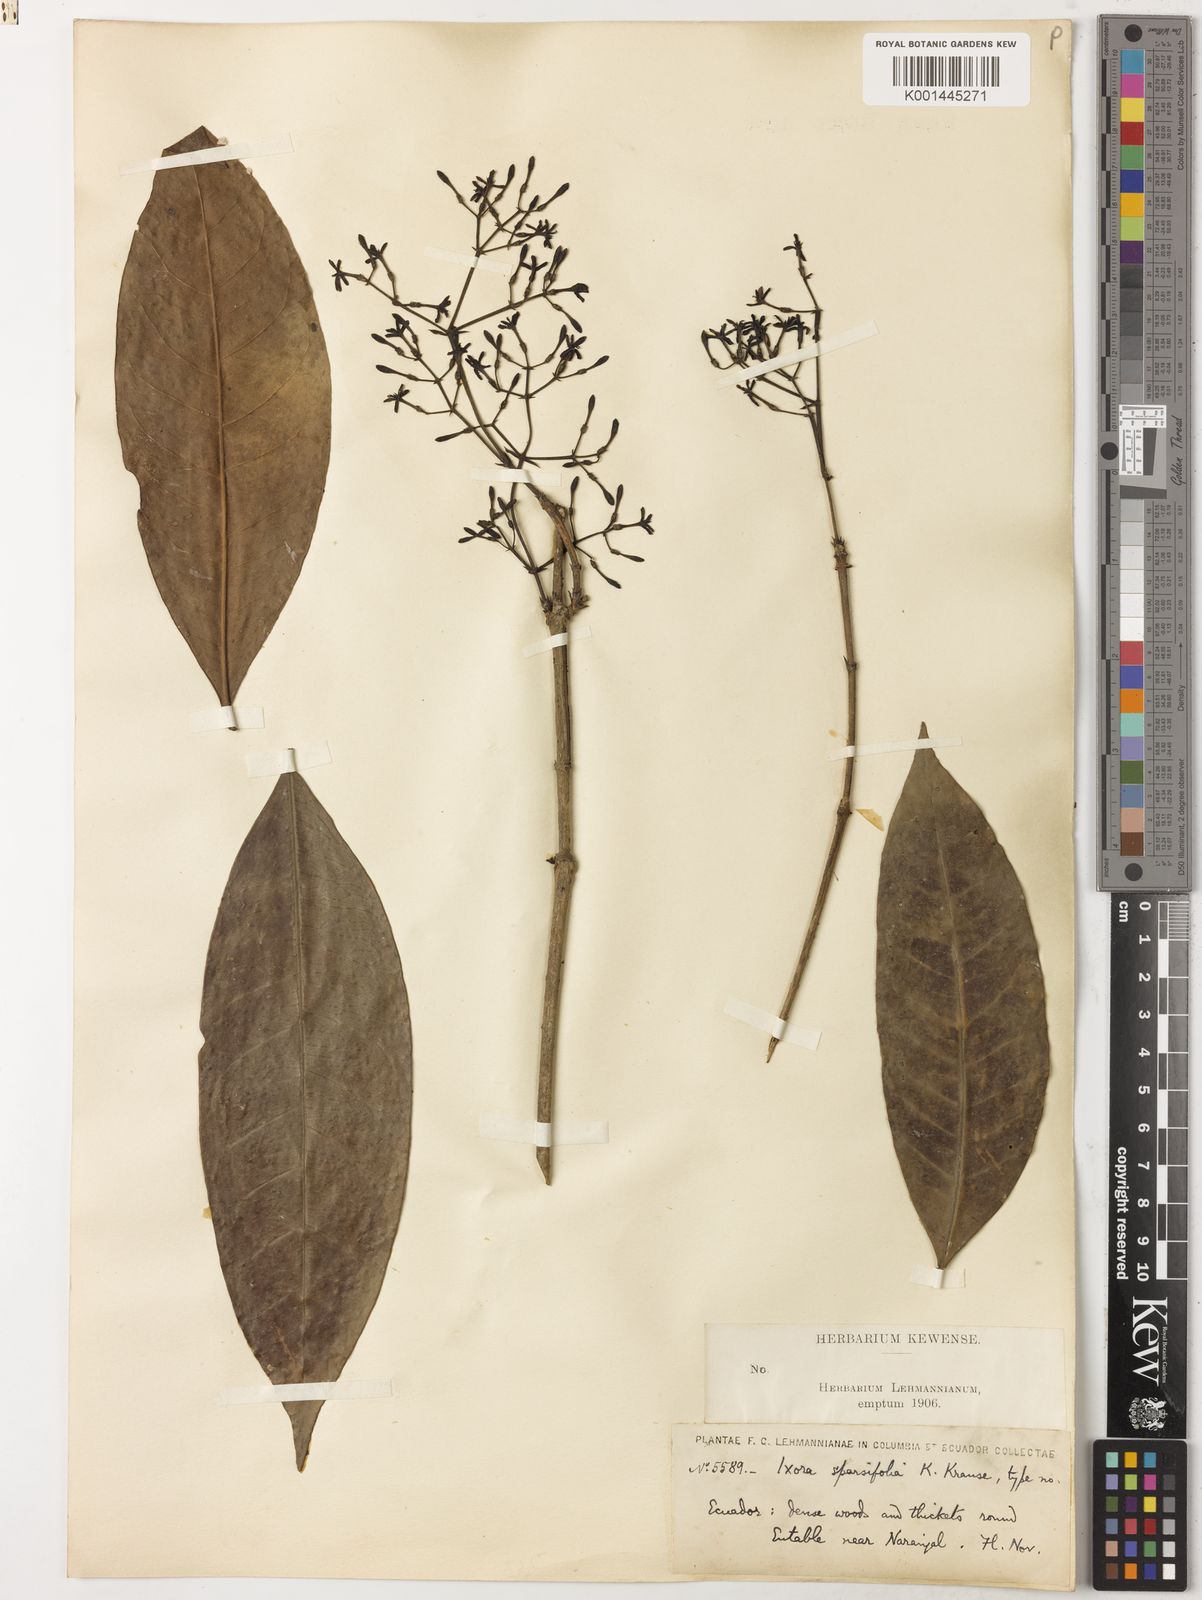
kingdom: Plantae
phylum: Tracheophyta
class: Magnoliopsida
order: Gentianales
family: Rubiaceae
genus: Ixora
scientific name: Ixora sparsifolia
